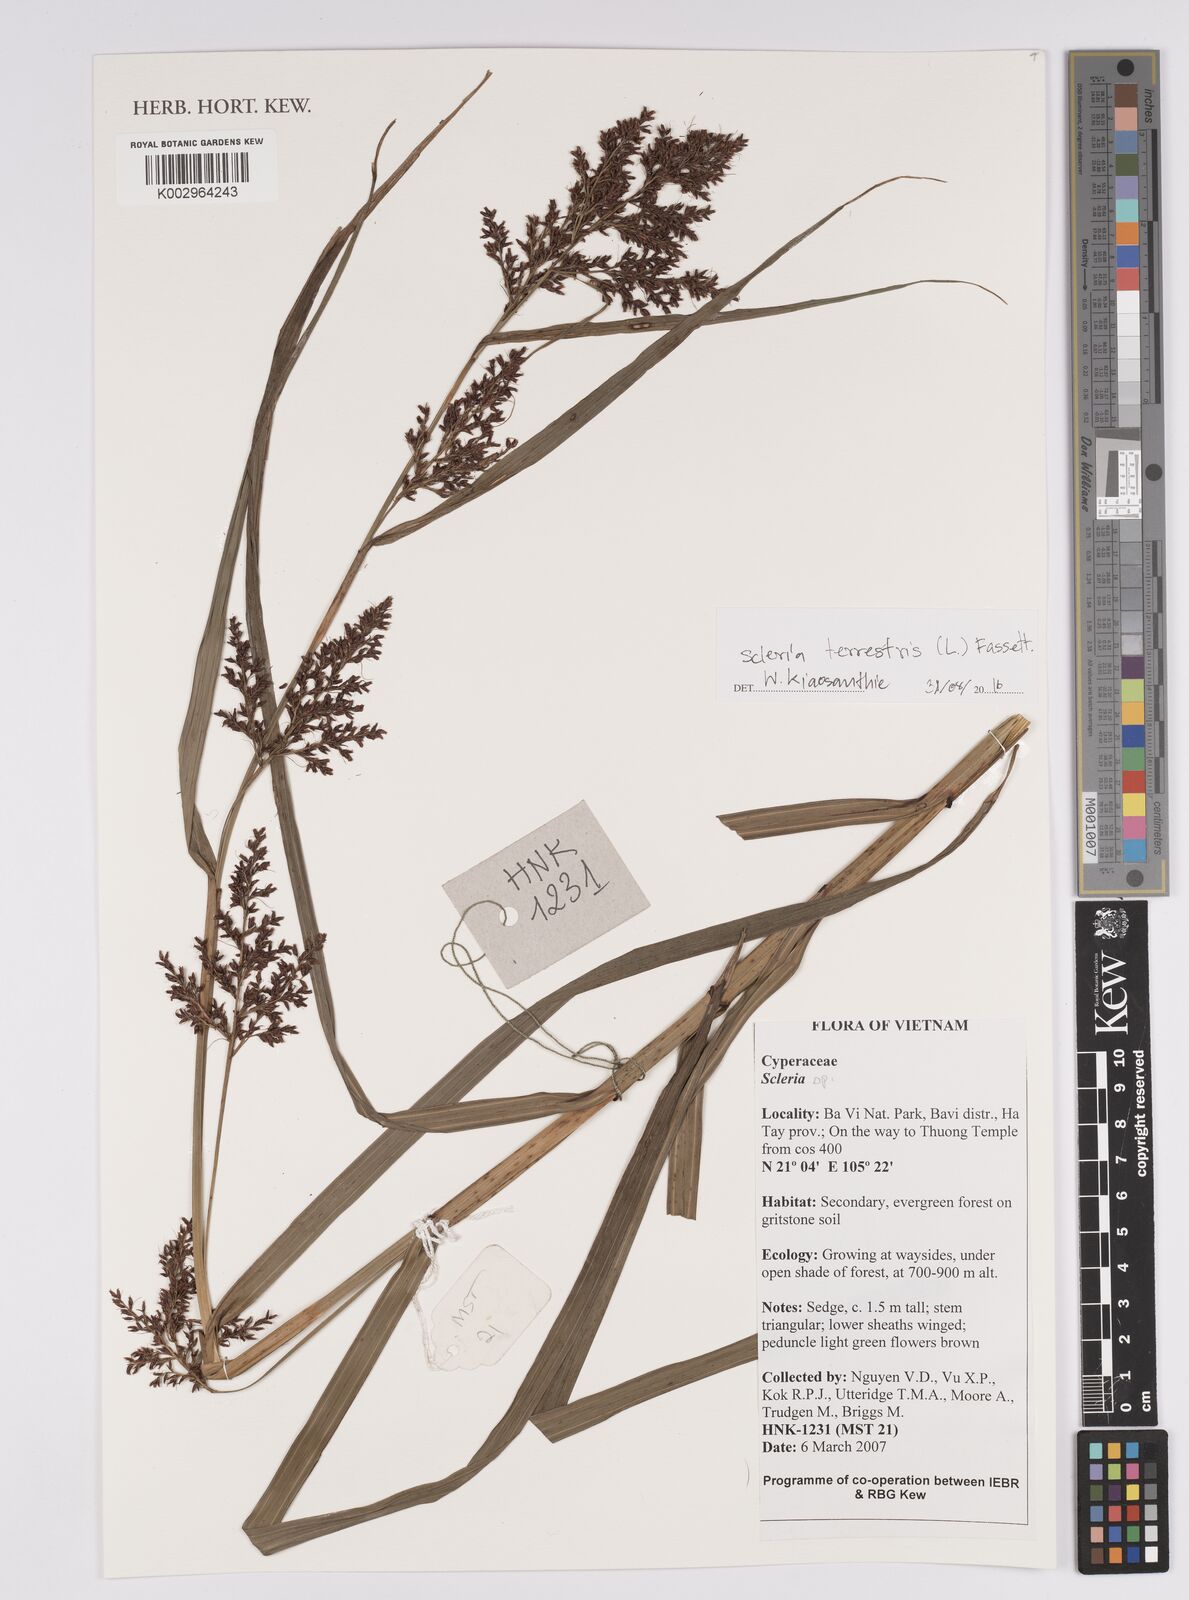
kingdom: Plantae
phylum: Tracheophyta
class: Liliopsida
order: Poales
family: Cyperaceae
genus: Scleria
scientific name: Scleria terrestris
